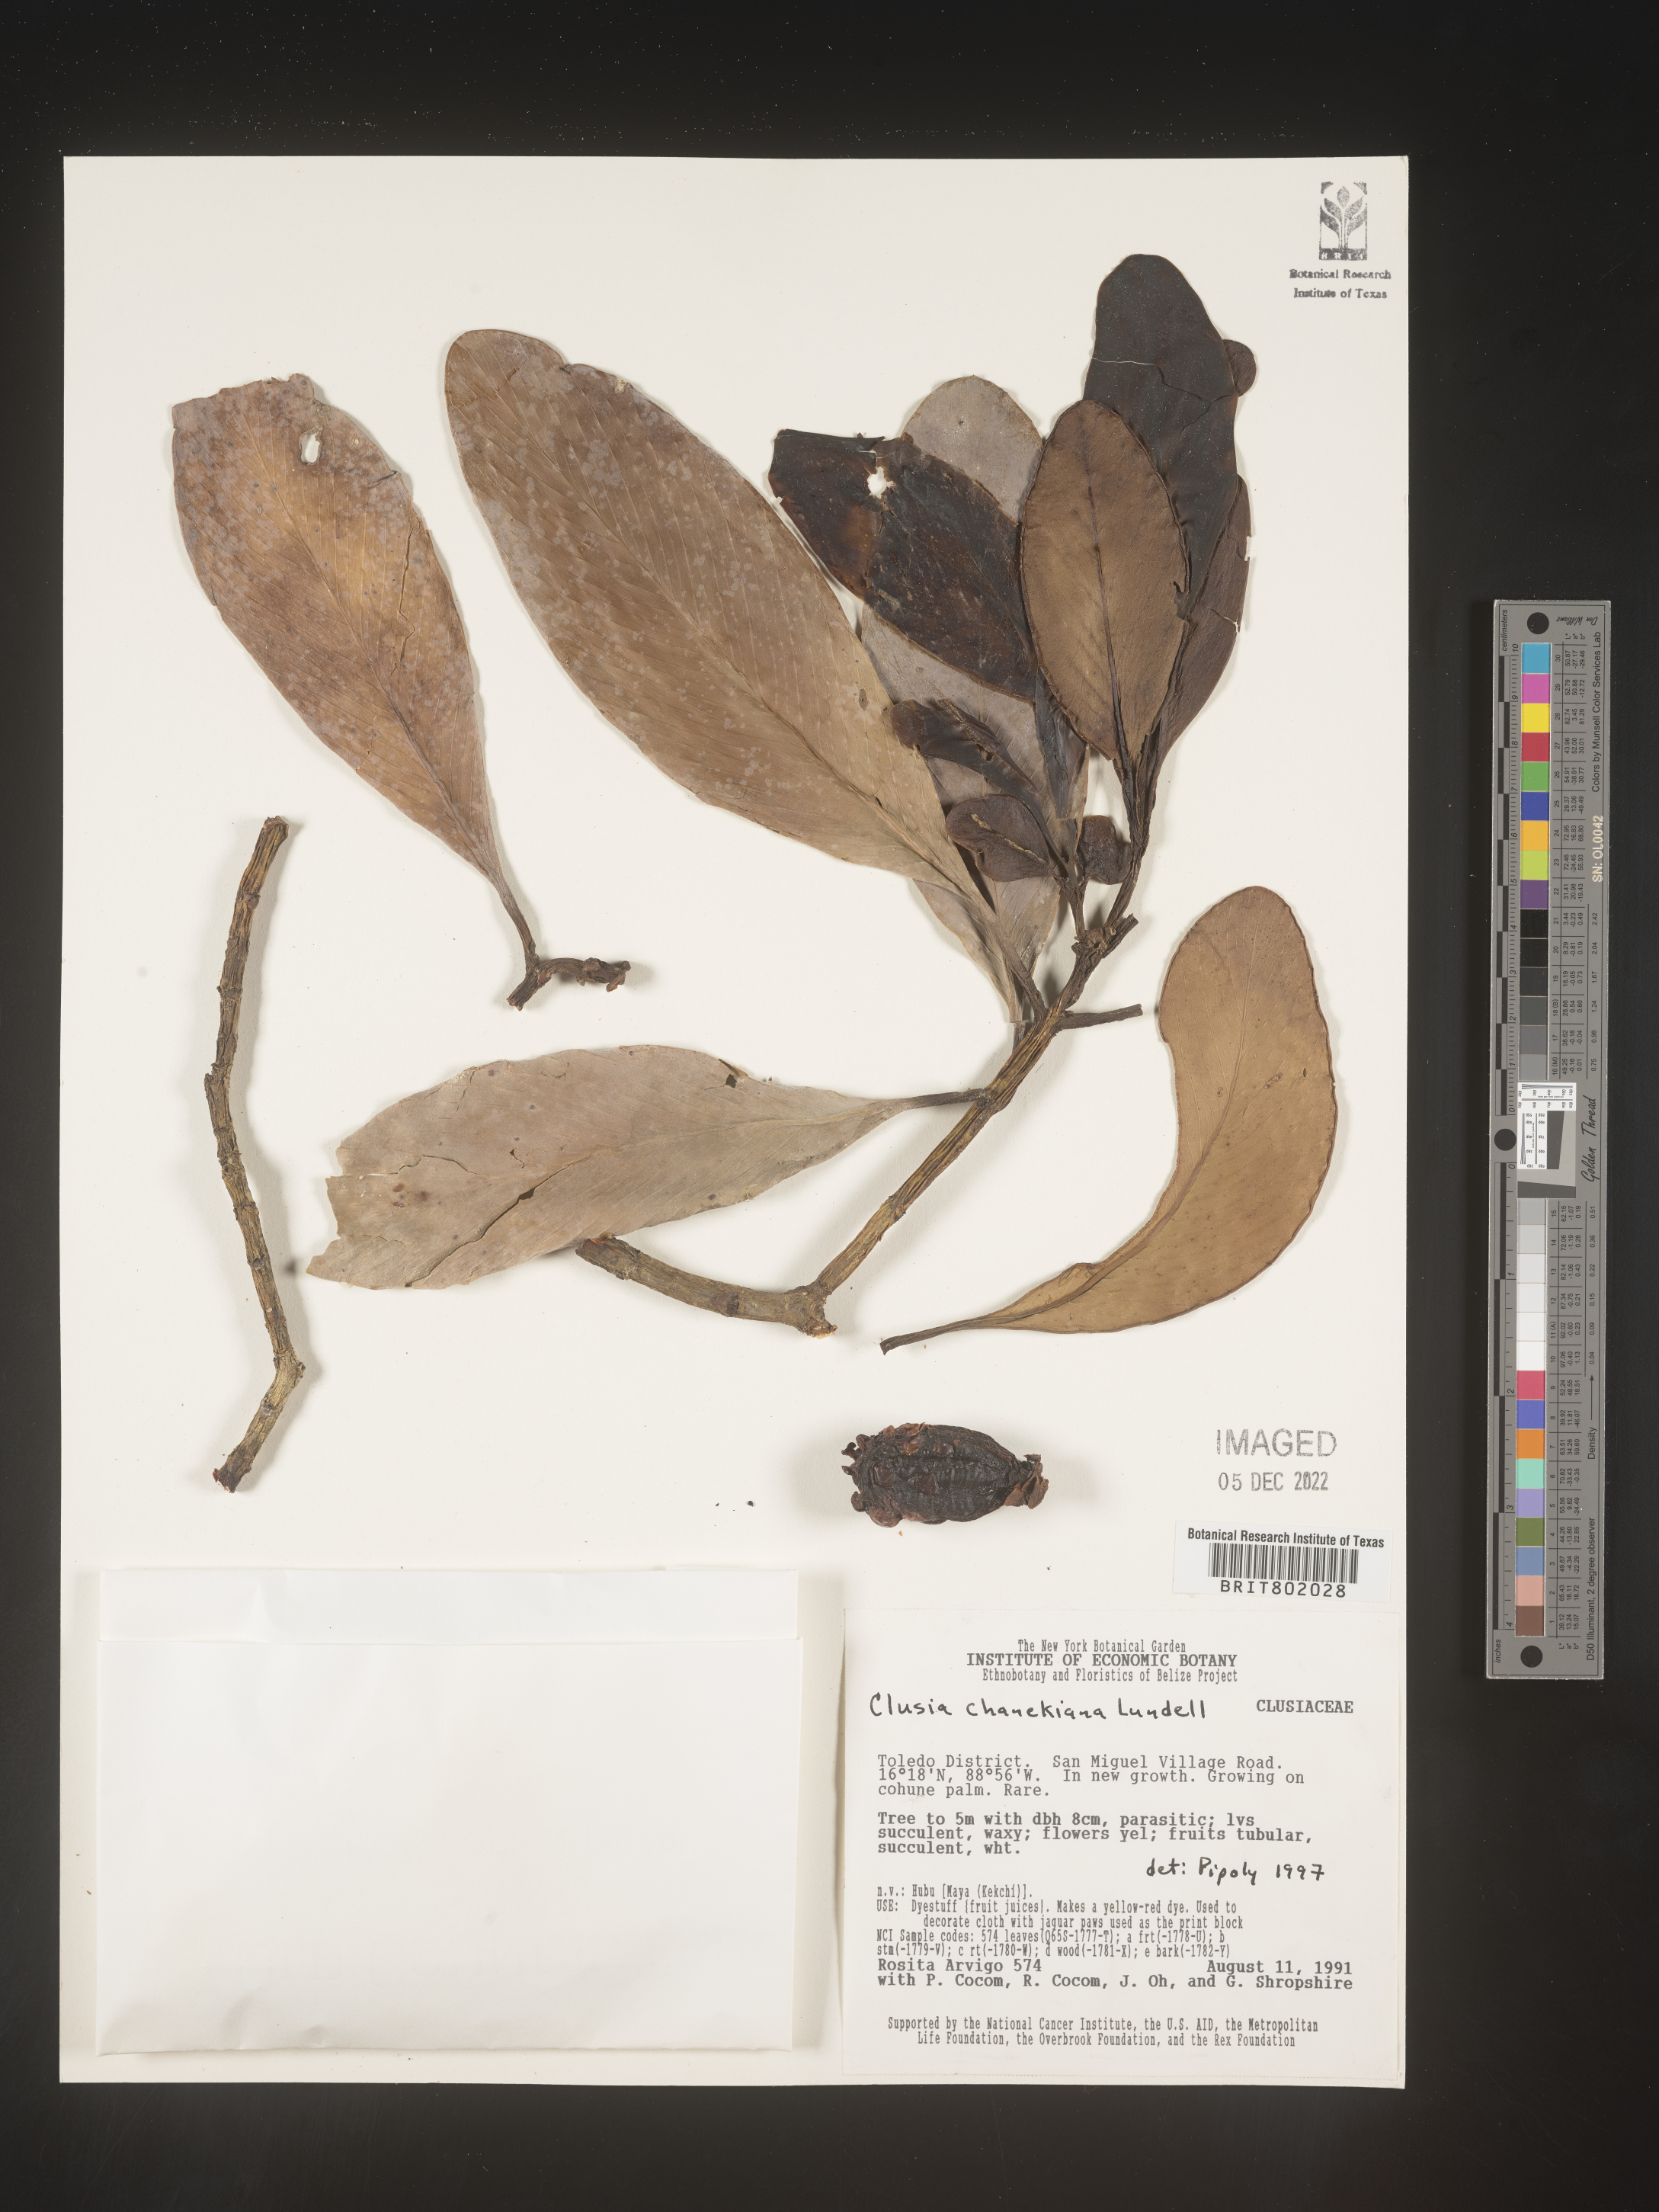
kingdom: Plantae
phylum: Tracheophyta
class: Magnoliopsida
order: Malpighiales
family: Clusiaceae
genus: Clusia
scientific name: Clusia
